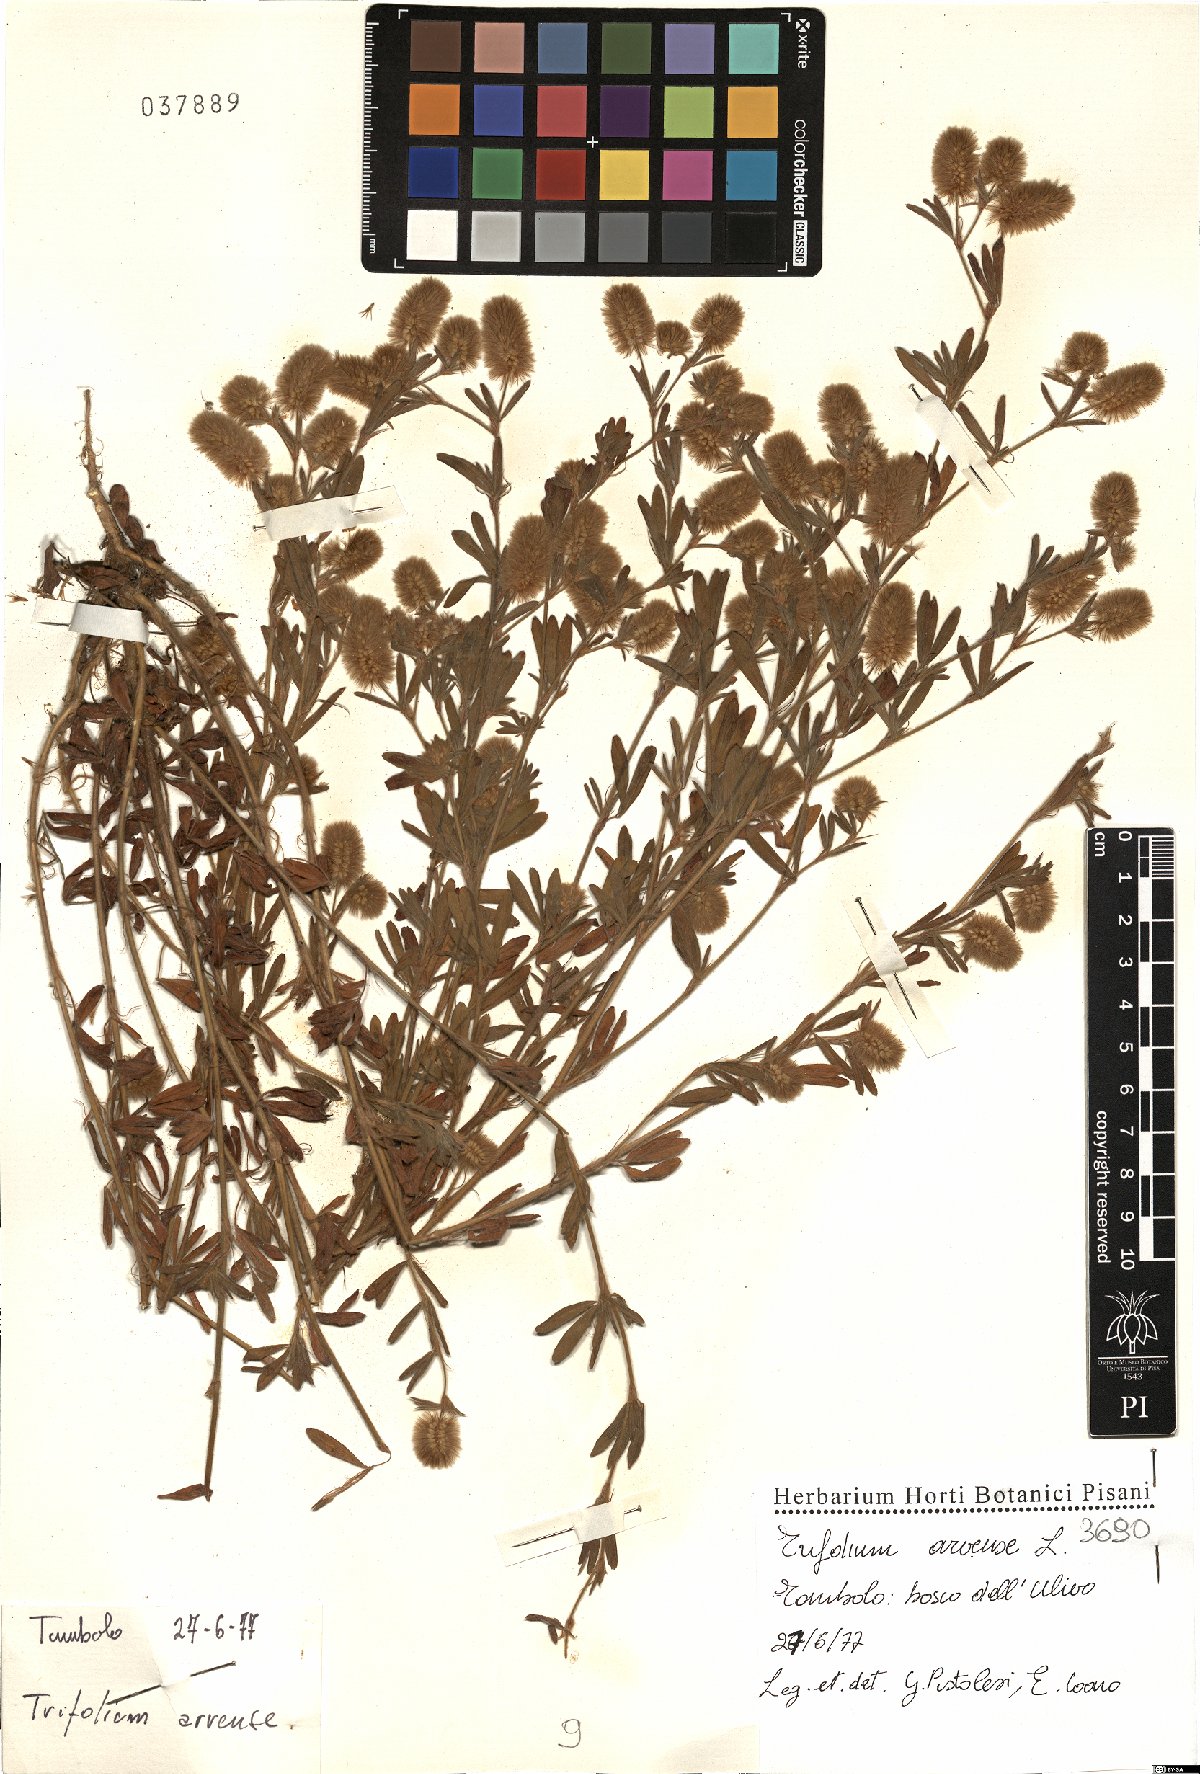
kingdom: Plantae
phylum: Tracheophyta
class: Magnoliopsida
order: Fabales
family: Fabaceae
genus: Trifolium
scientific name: Trifolium arvense
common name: Hare's-foot clover
